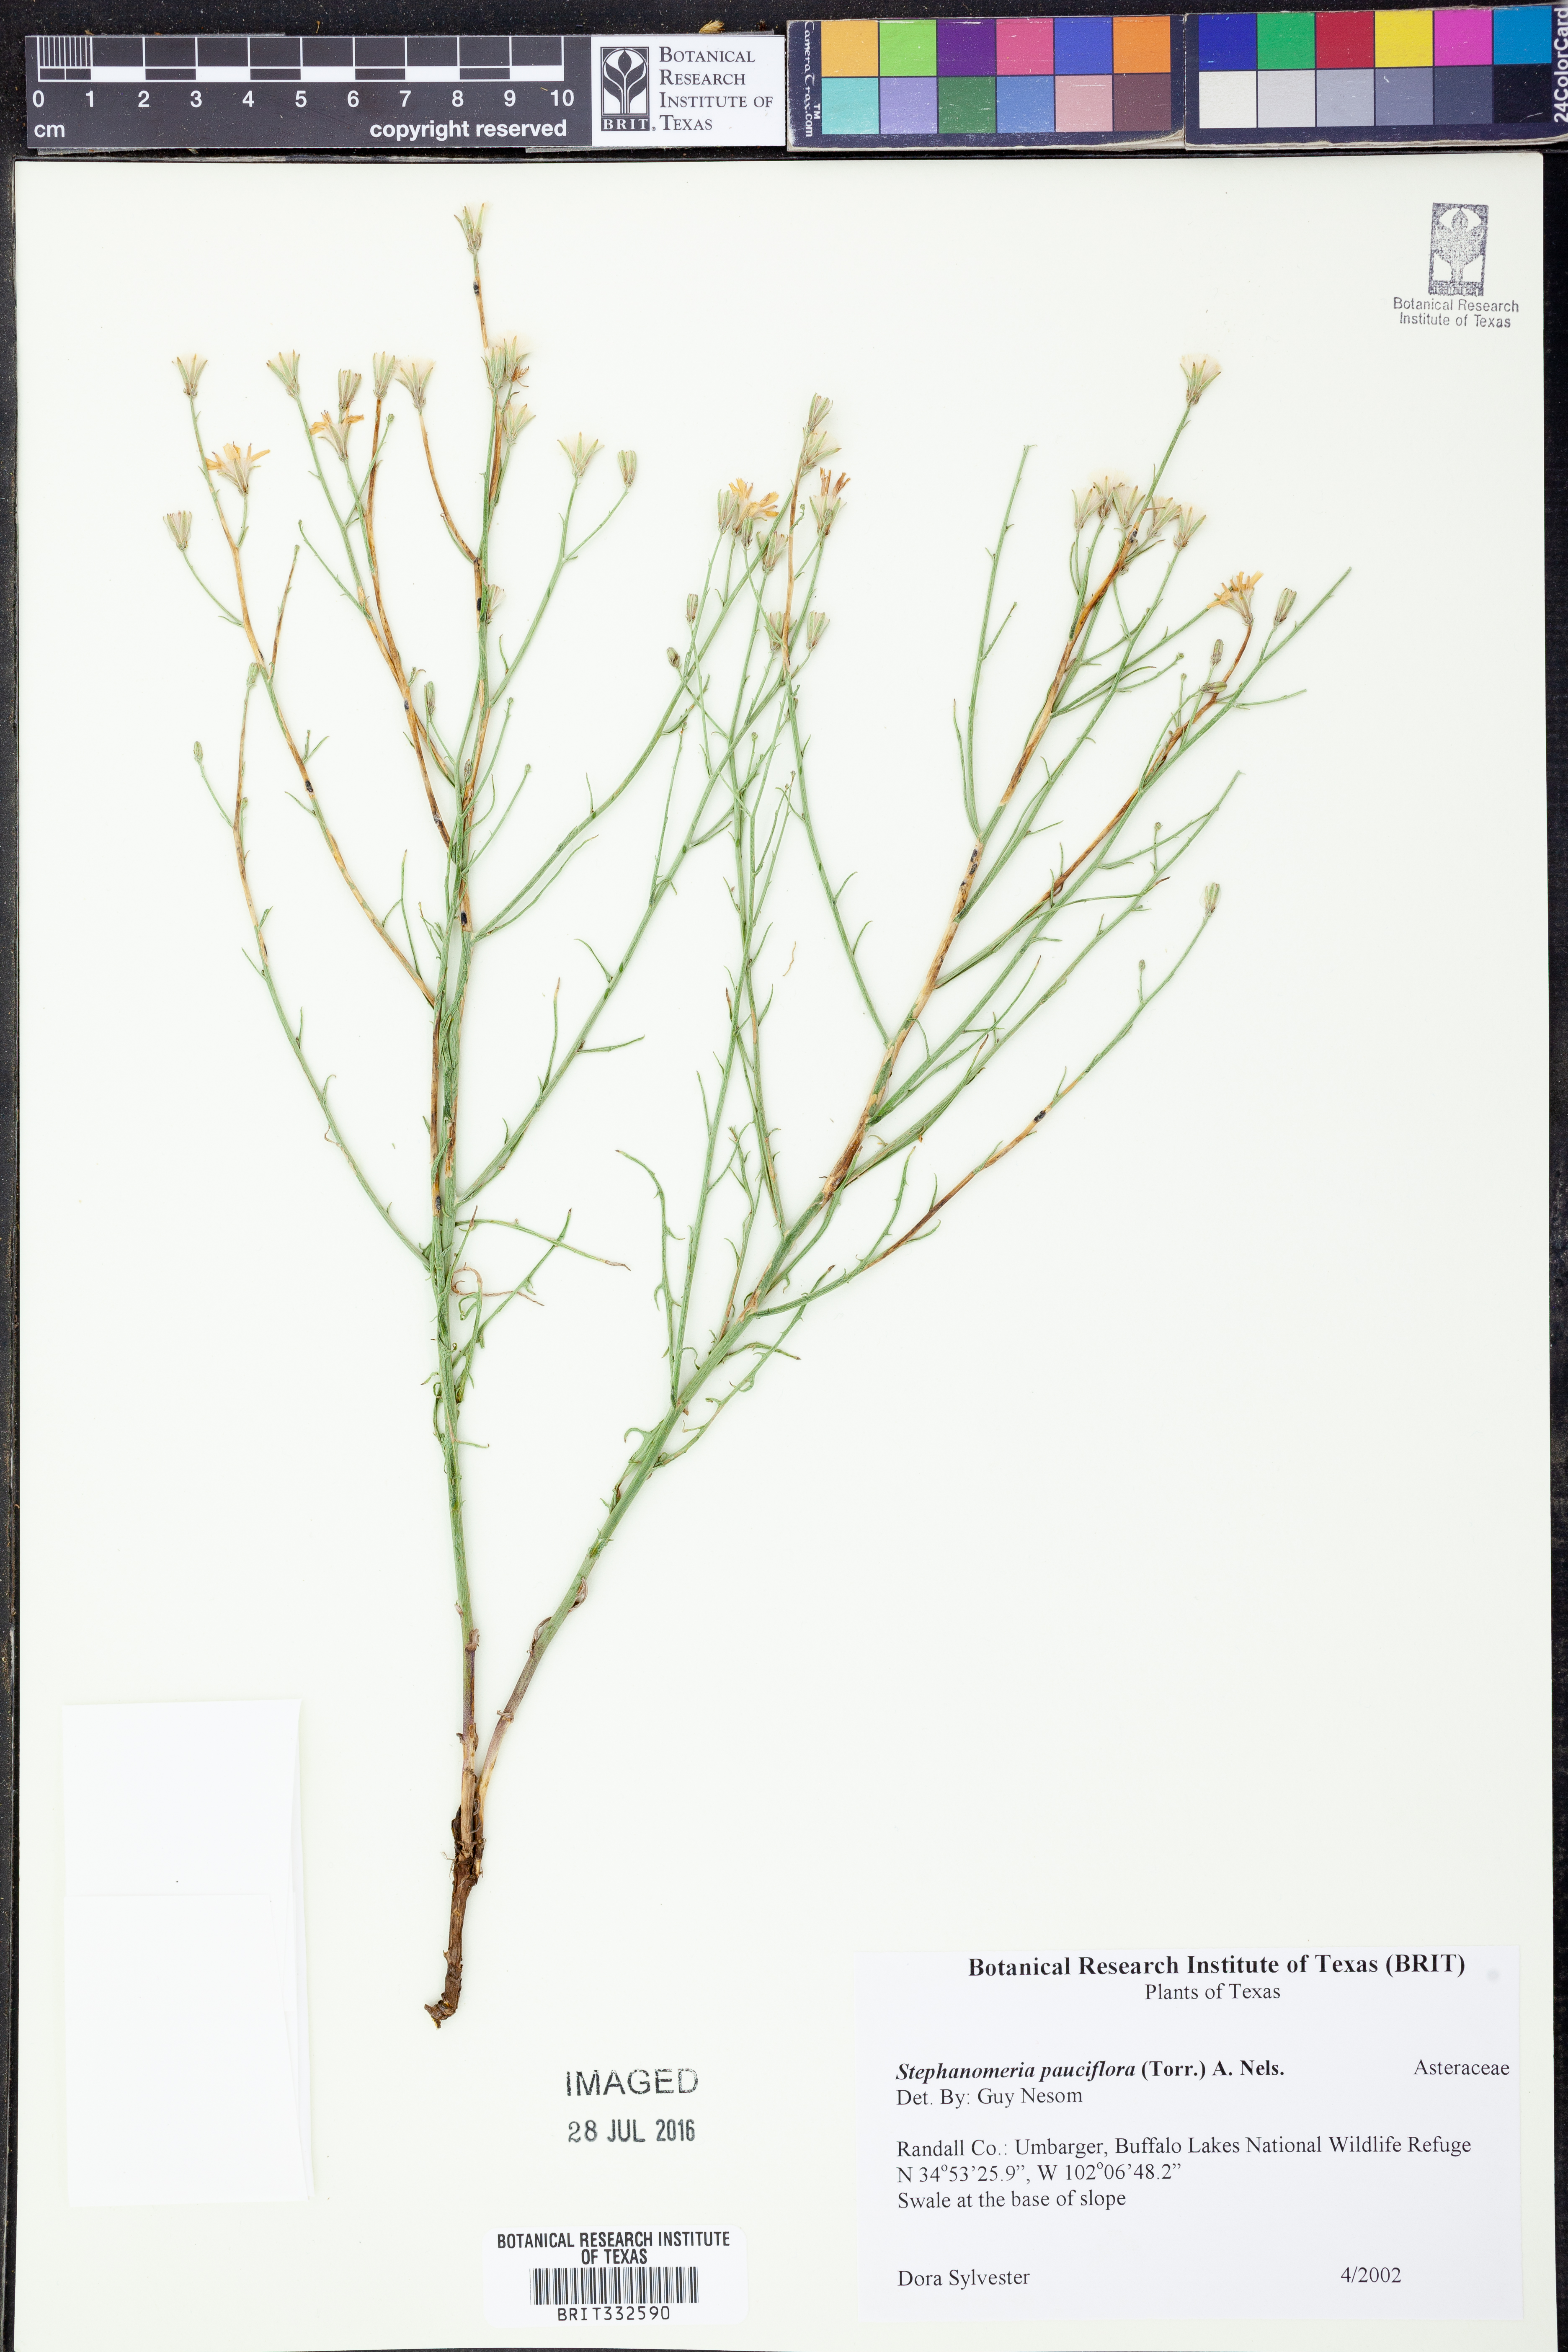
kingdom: Plantae
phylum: Tracheophyta
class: Magnoliopsida
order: Asterales
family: Asteraceae
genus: Stephanomeria
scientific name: Stephanomeria pauciflora
